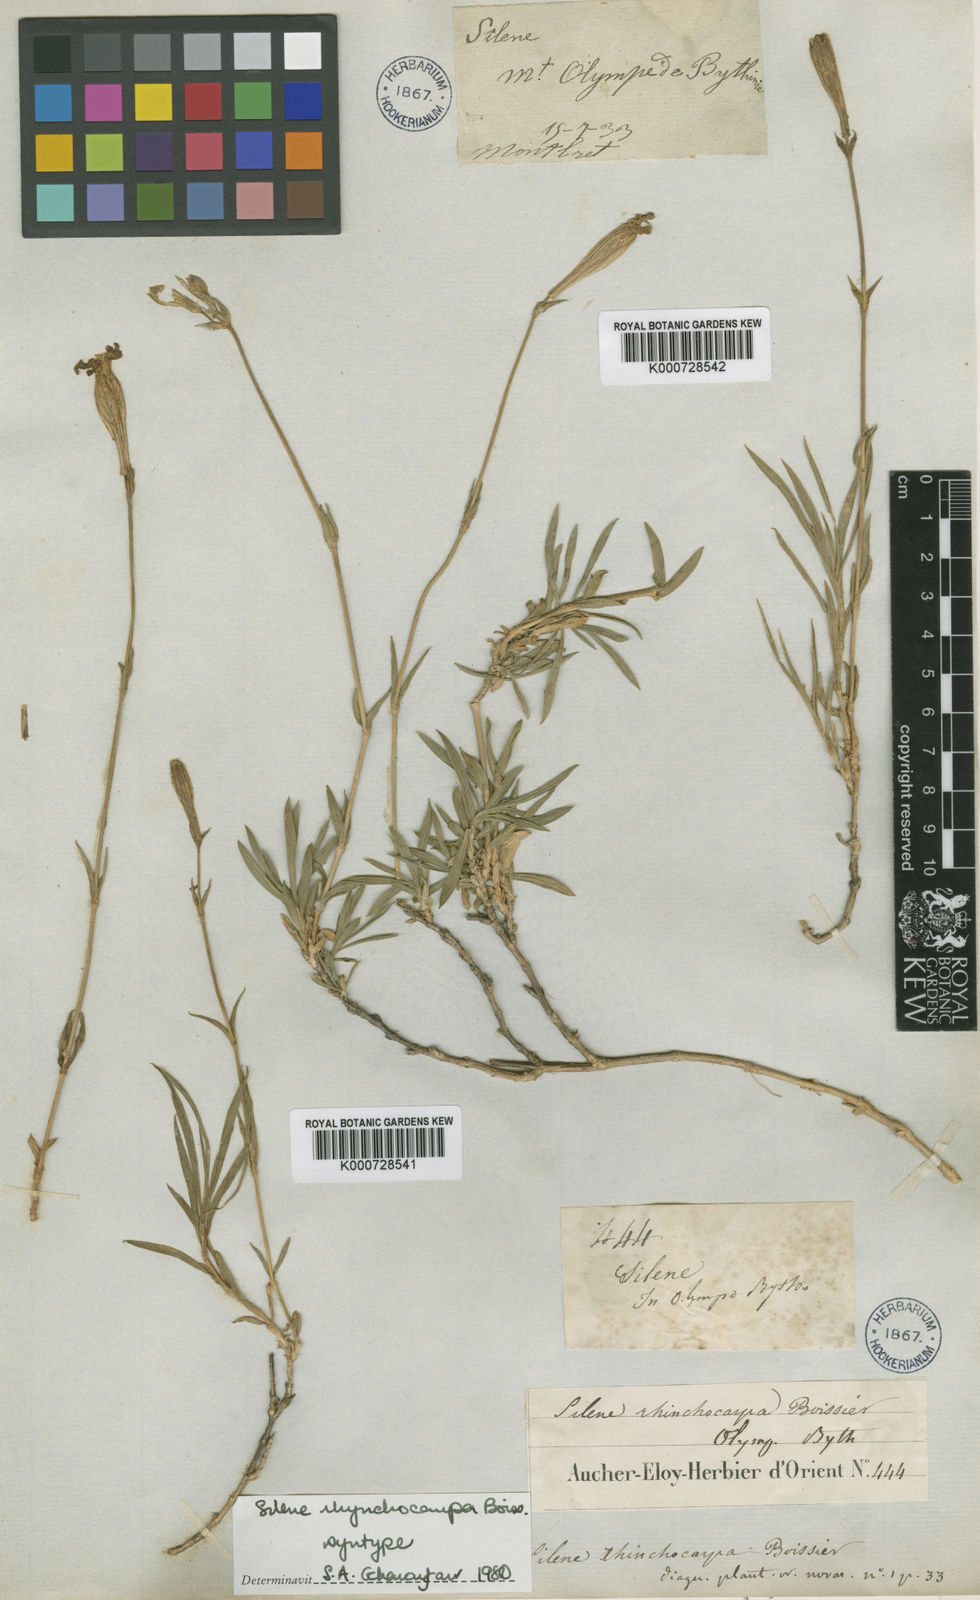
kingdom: Plantae
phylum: Tracheophyta
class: Magnoliopsida
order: Caryophyllales
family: Caryophyllaceae
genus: Silene
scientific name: Silene rhynchocarpa
